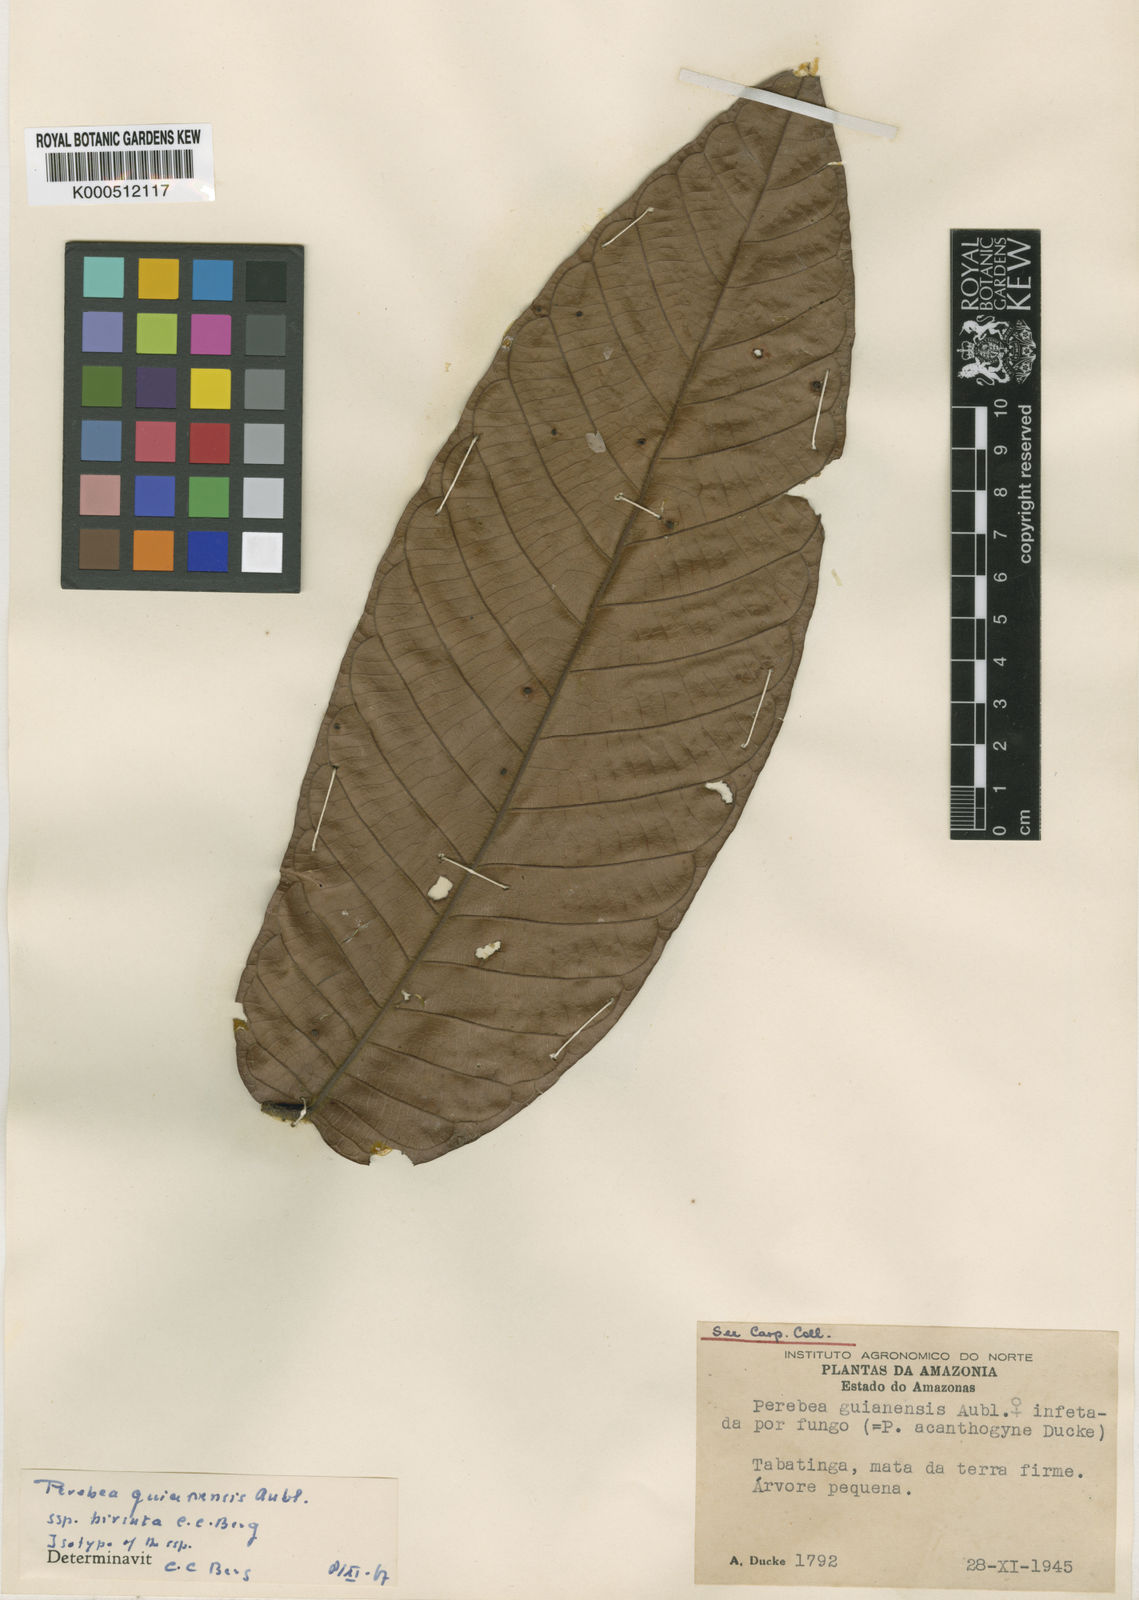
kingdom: Plantae
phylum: Tracheophyta
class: Magnoliopsida
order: Rosales
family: Moraceae
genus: Perebea
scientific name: Perebea guianensis
